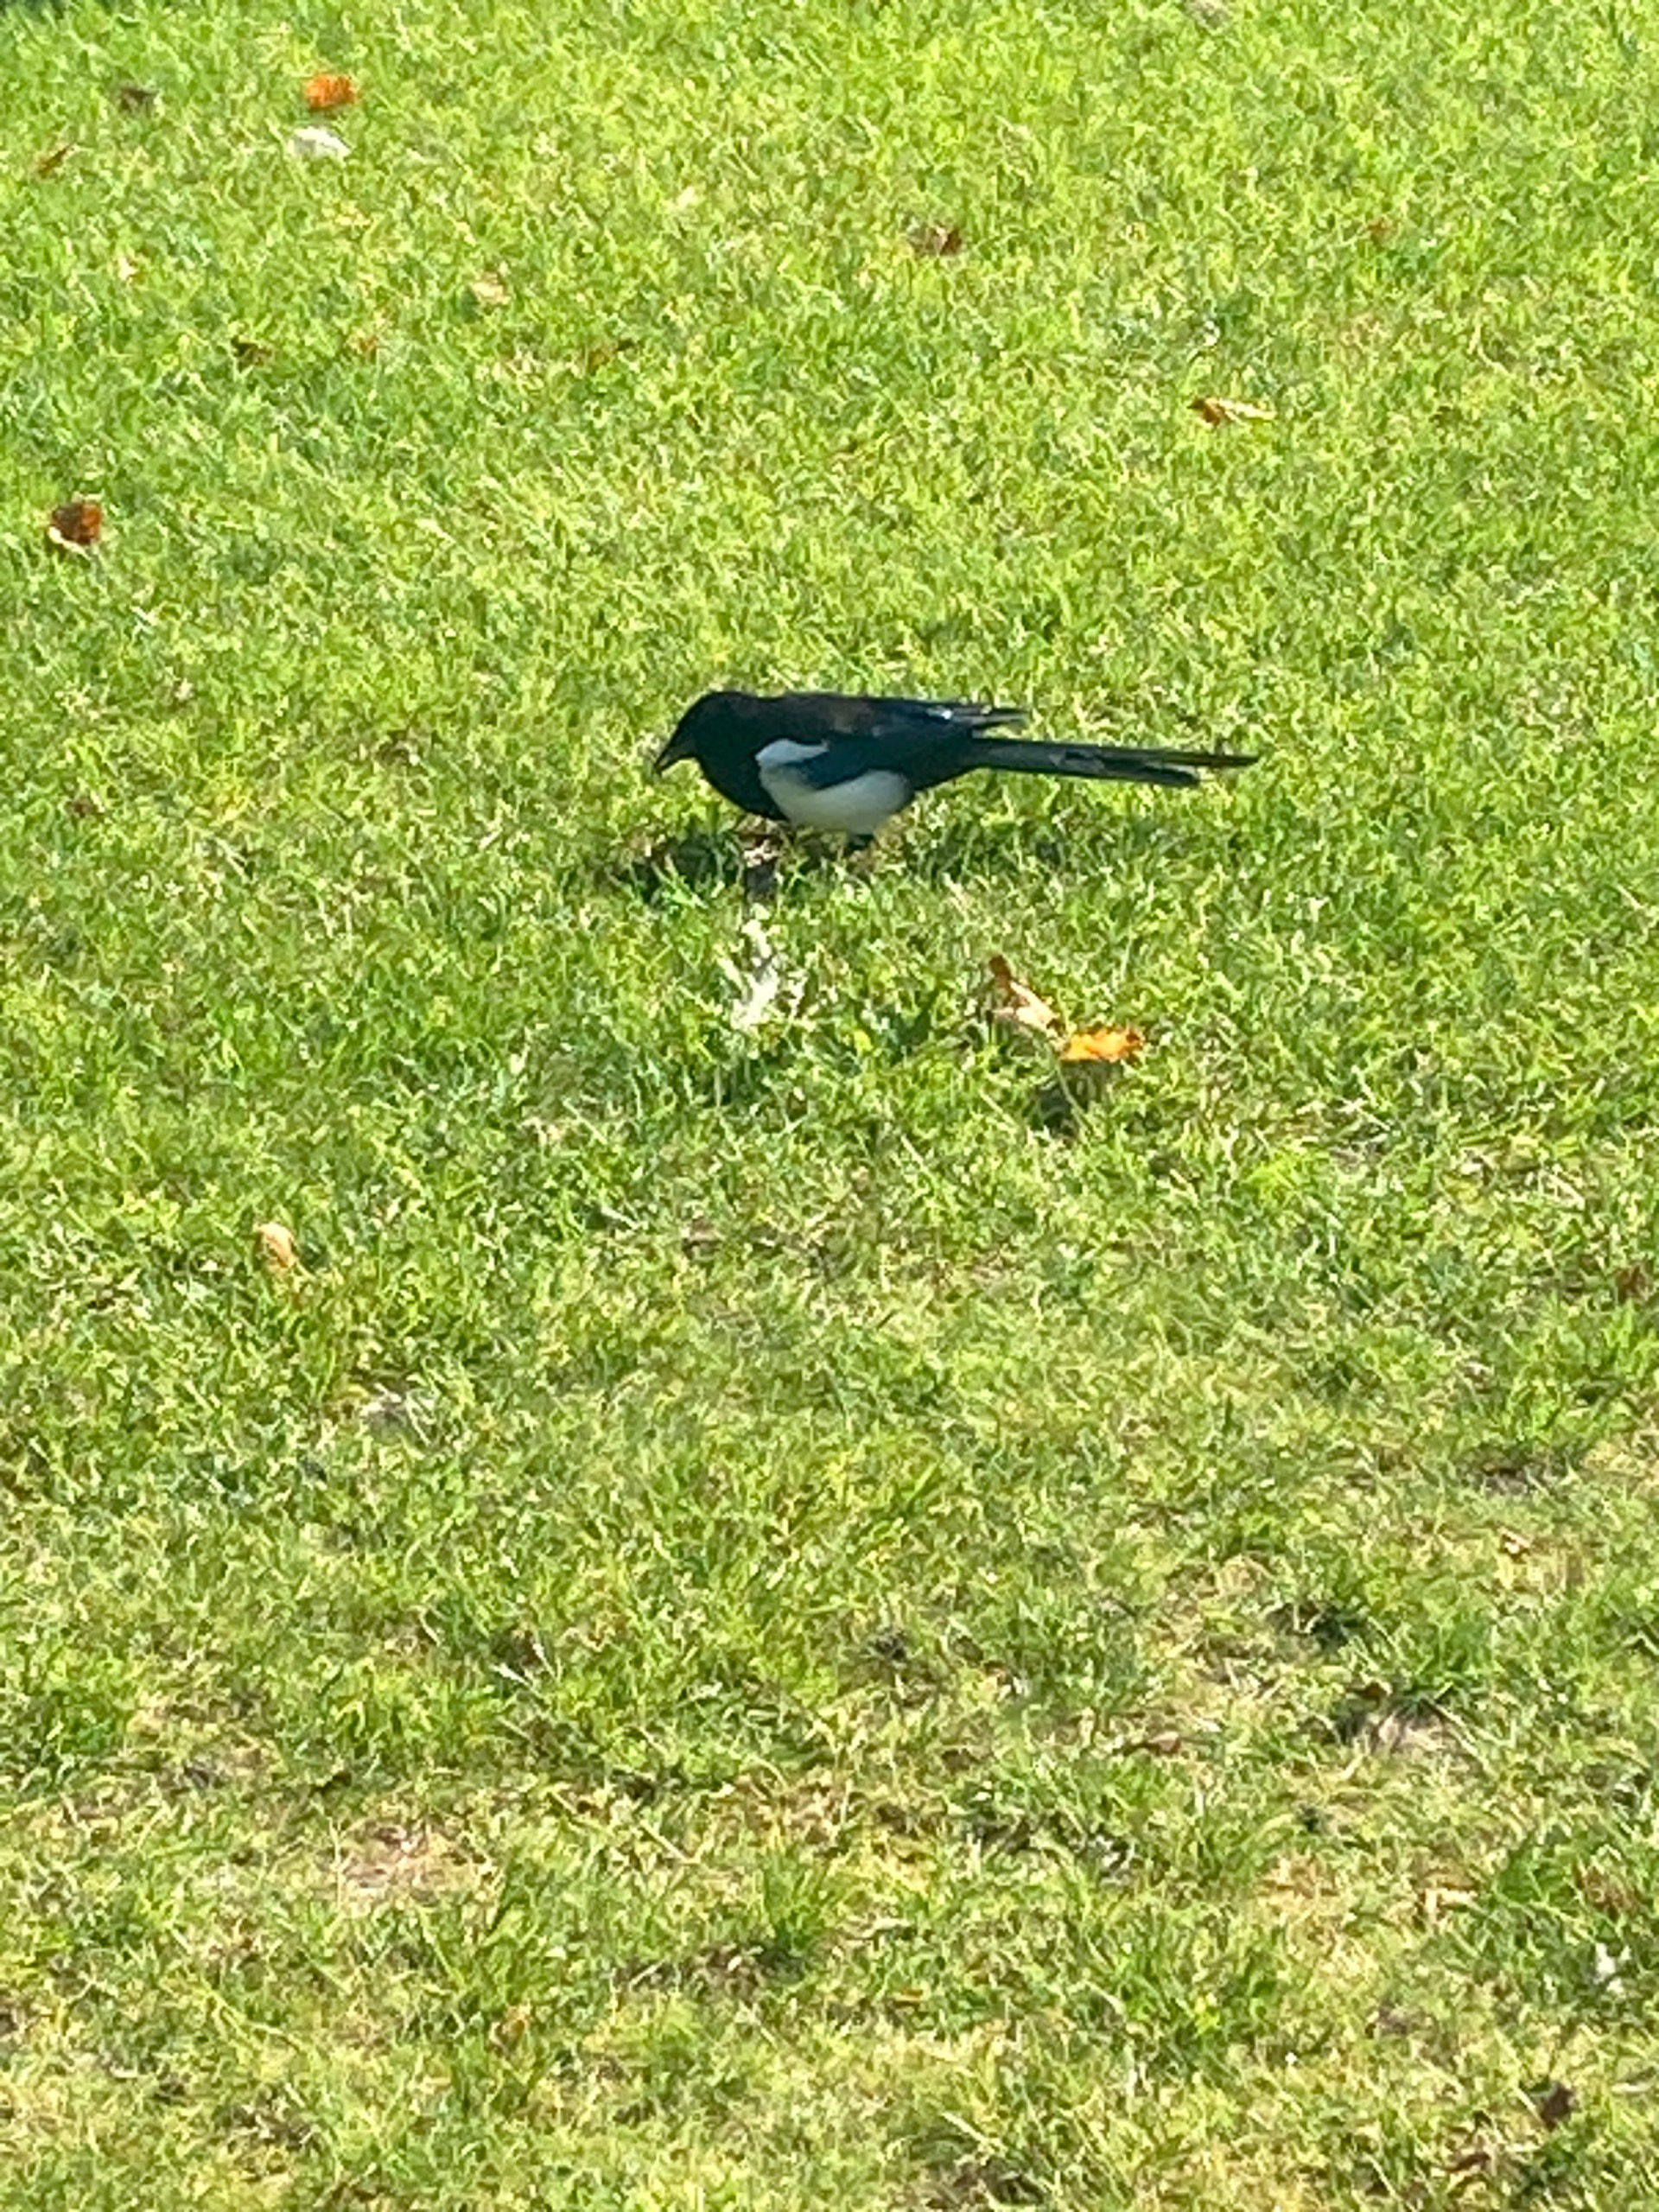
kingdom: Animalia
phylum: Chordata
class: Aves
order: Passeriformes
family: Corvidae
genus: Pica
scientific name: Pica pica
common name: Husskade
